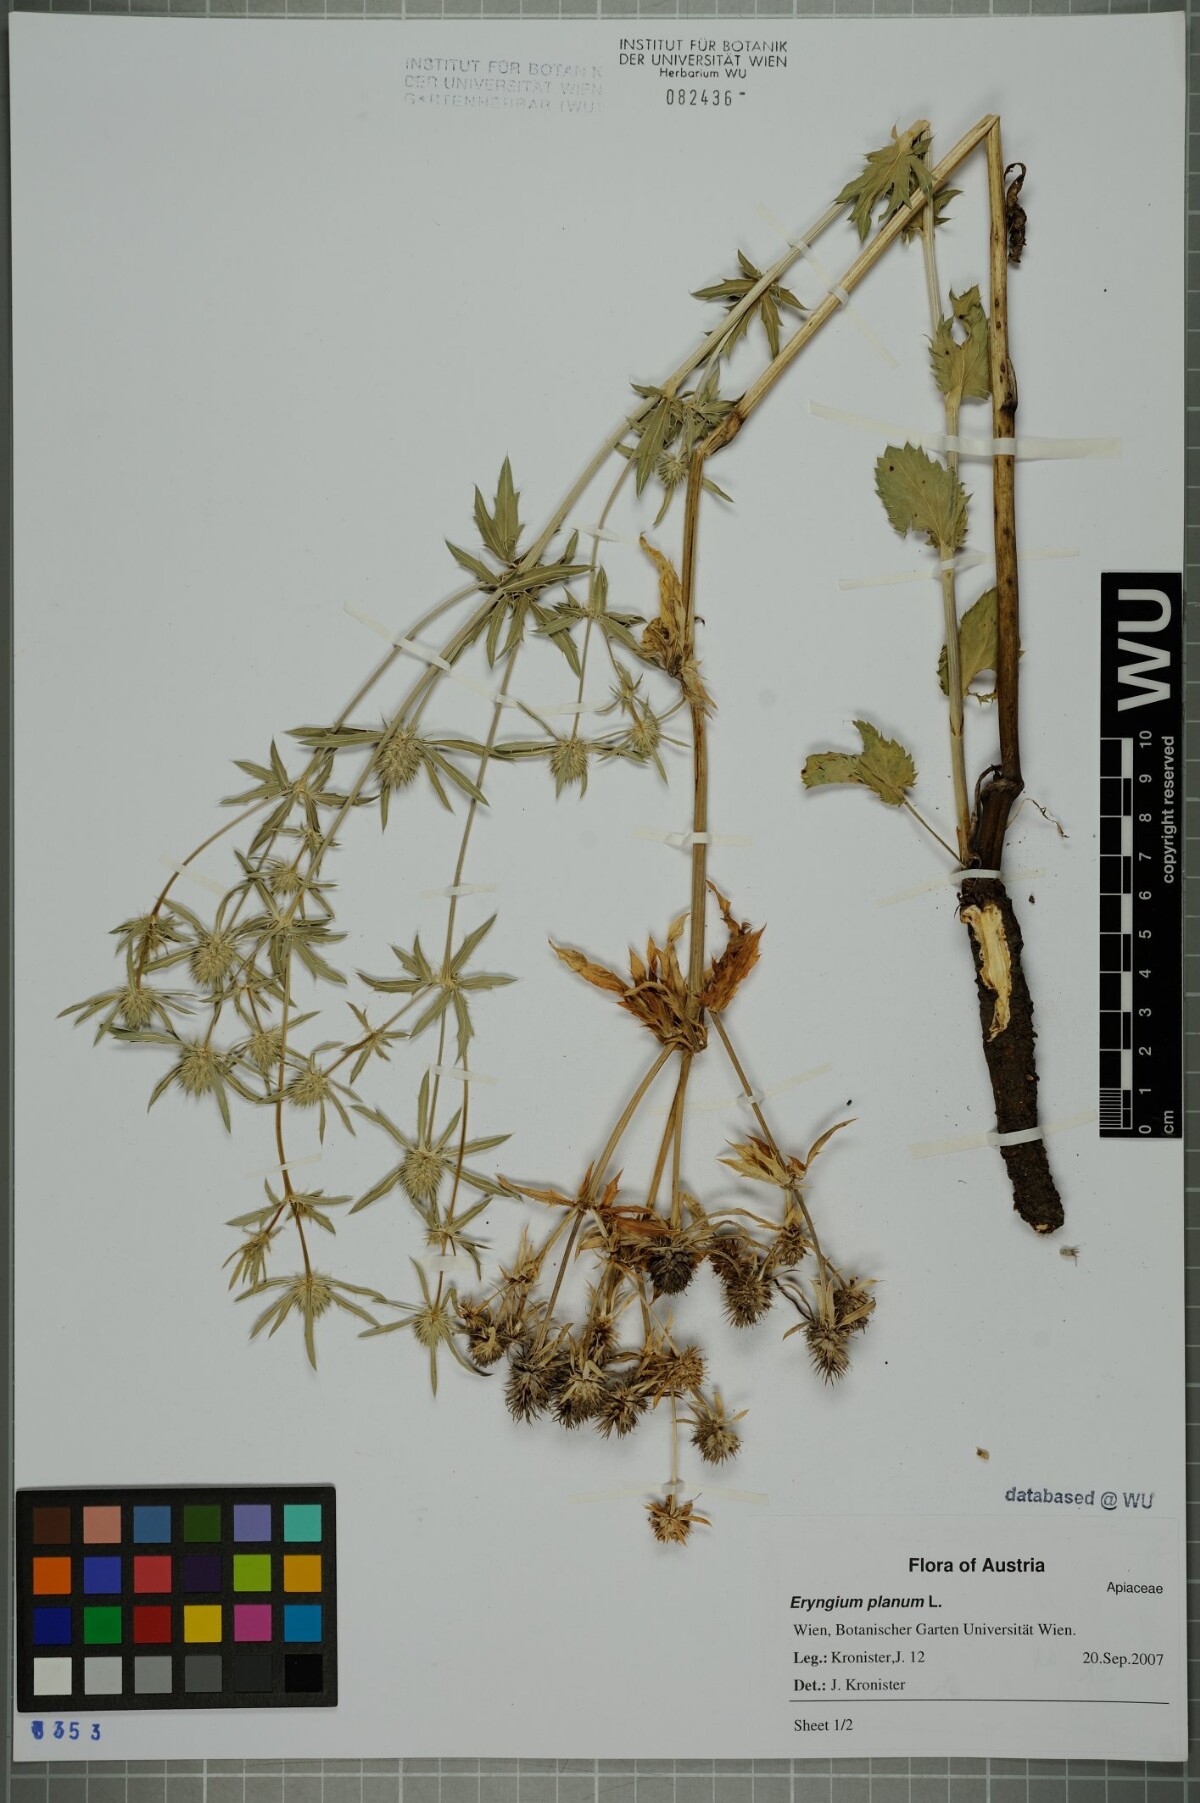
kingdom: Plantae
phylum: Tracheophyta
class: Magnoliopsida
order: Apiales
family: Apiaceae
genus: Eryngium
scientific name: Eryngium planum
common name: Blue eryngo
